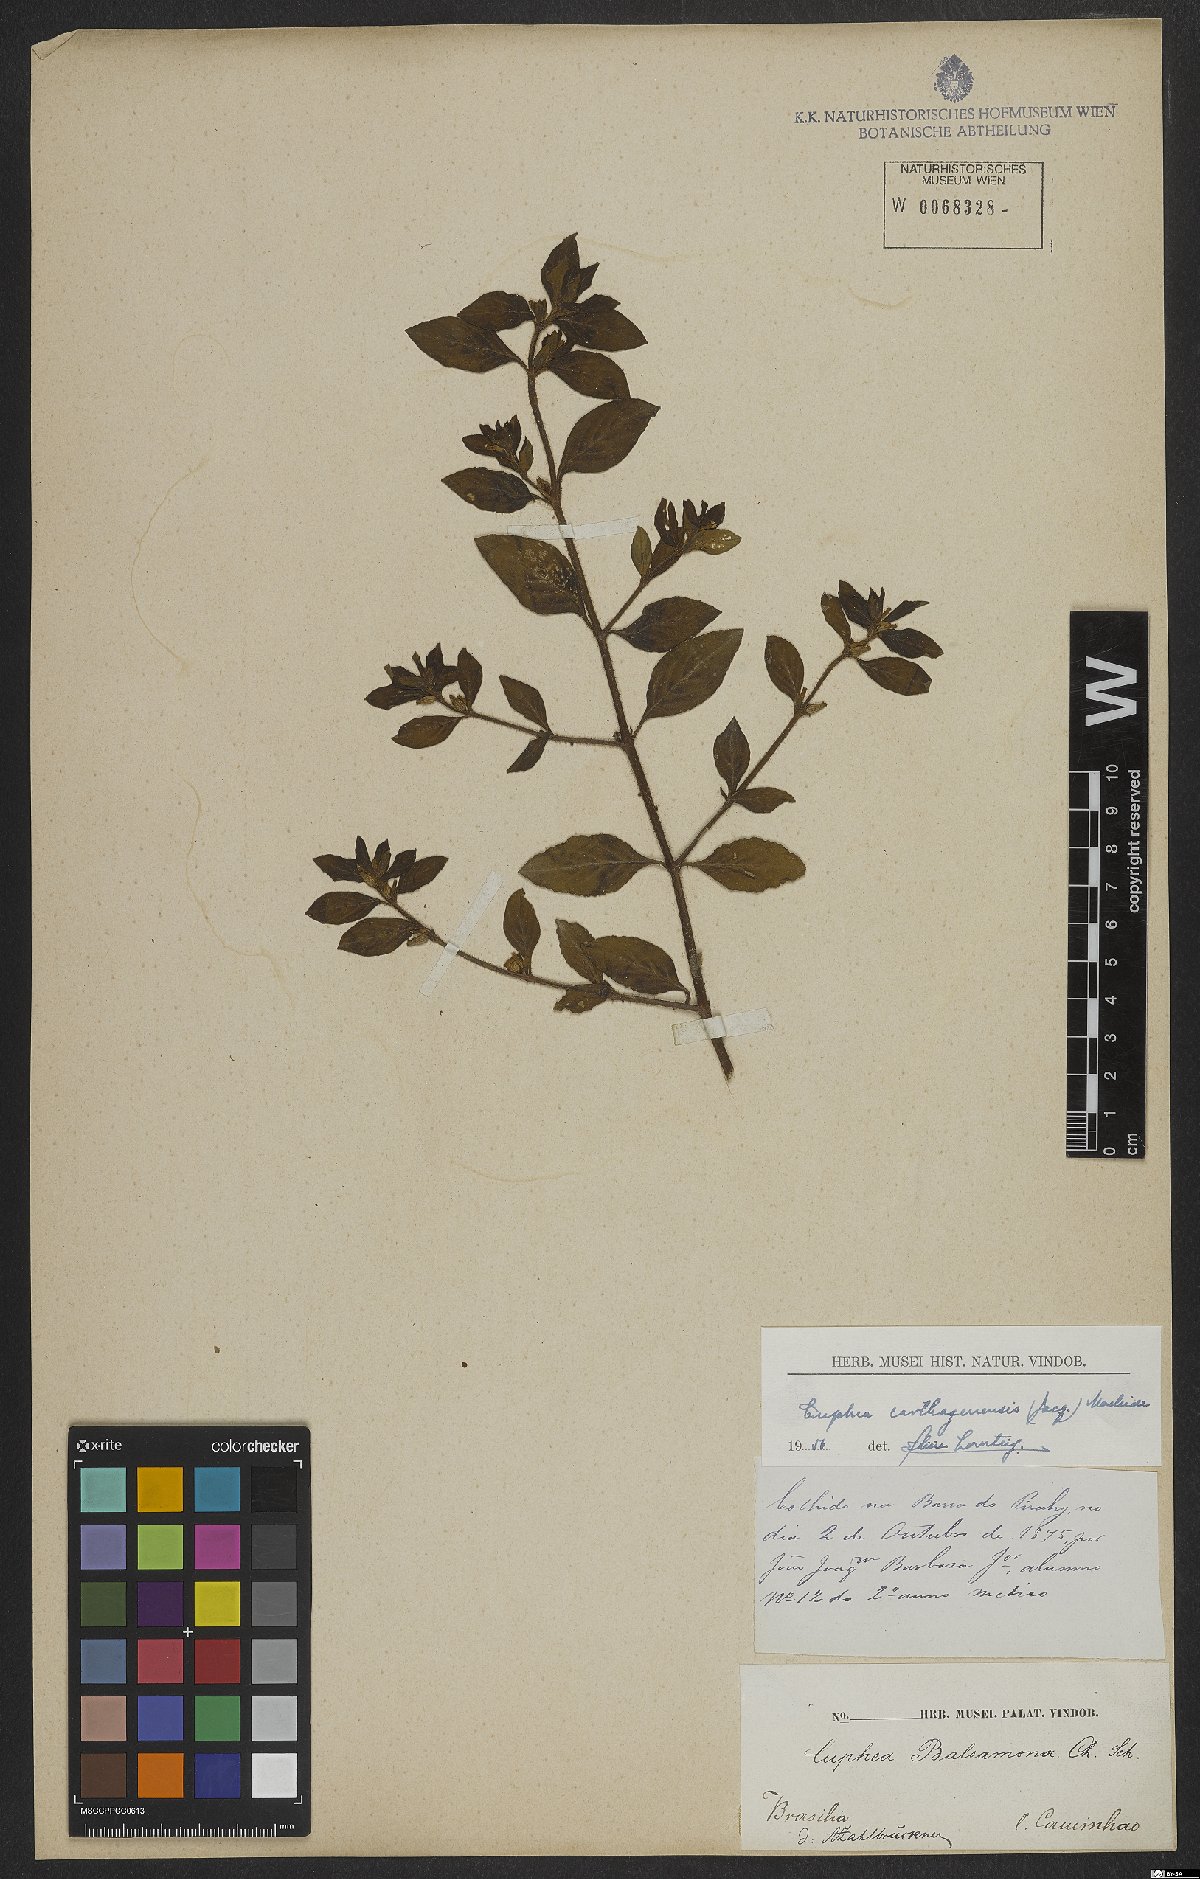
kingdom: Plantae
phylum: Tracheophyta
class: Magnoliopsida
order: Myrtales
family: Lythraceae
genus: Cuphea
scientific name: Cuphea carthagenensis
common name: Colombian waxweed
